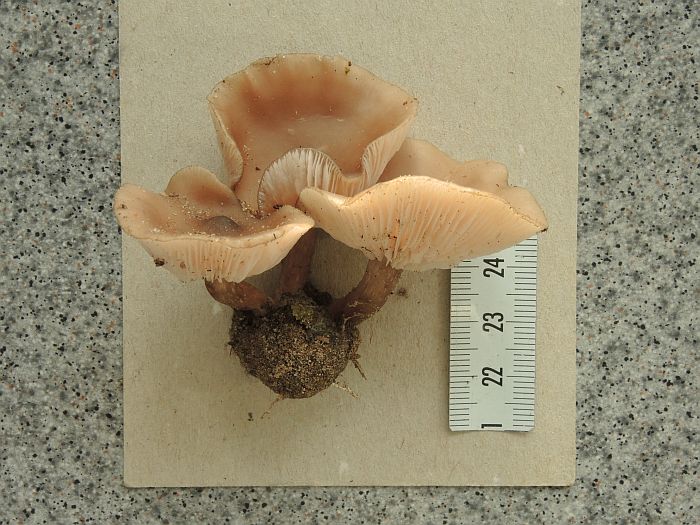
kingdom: Fungi
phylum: Basidiomycota
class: Agaricomycetes
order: Agaricales
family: Tricholomataceae
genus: Lepista
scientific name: Lepista sordida
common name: spinkel hekseringshat
